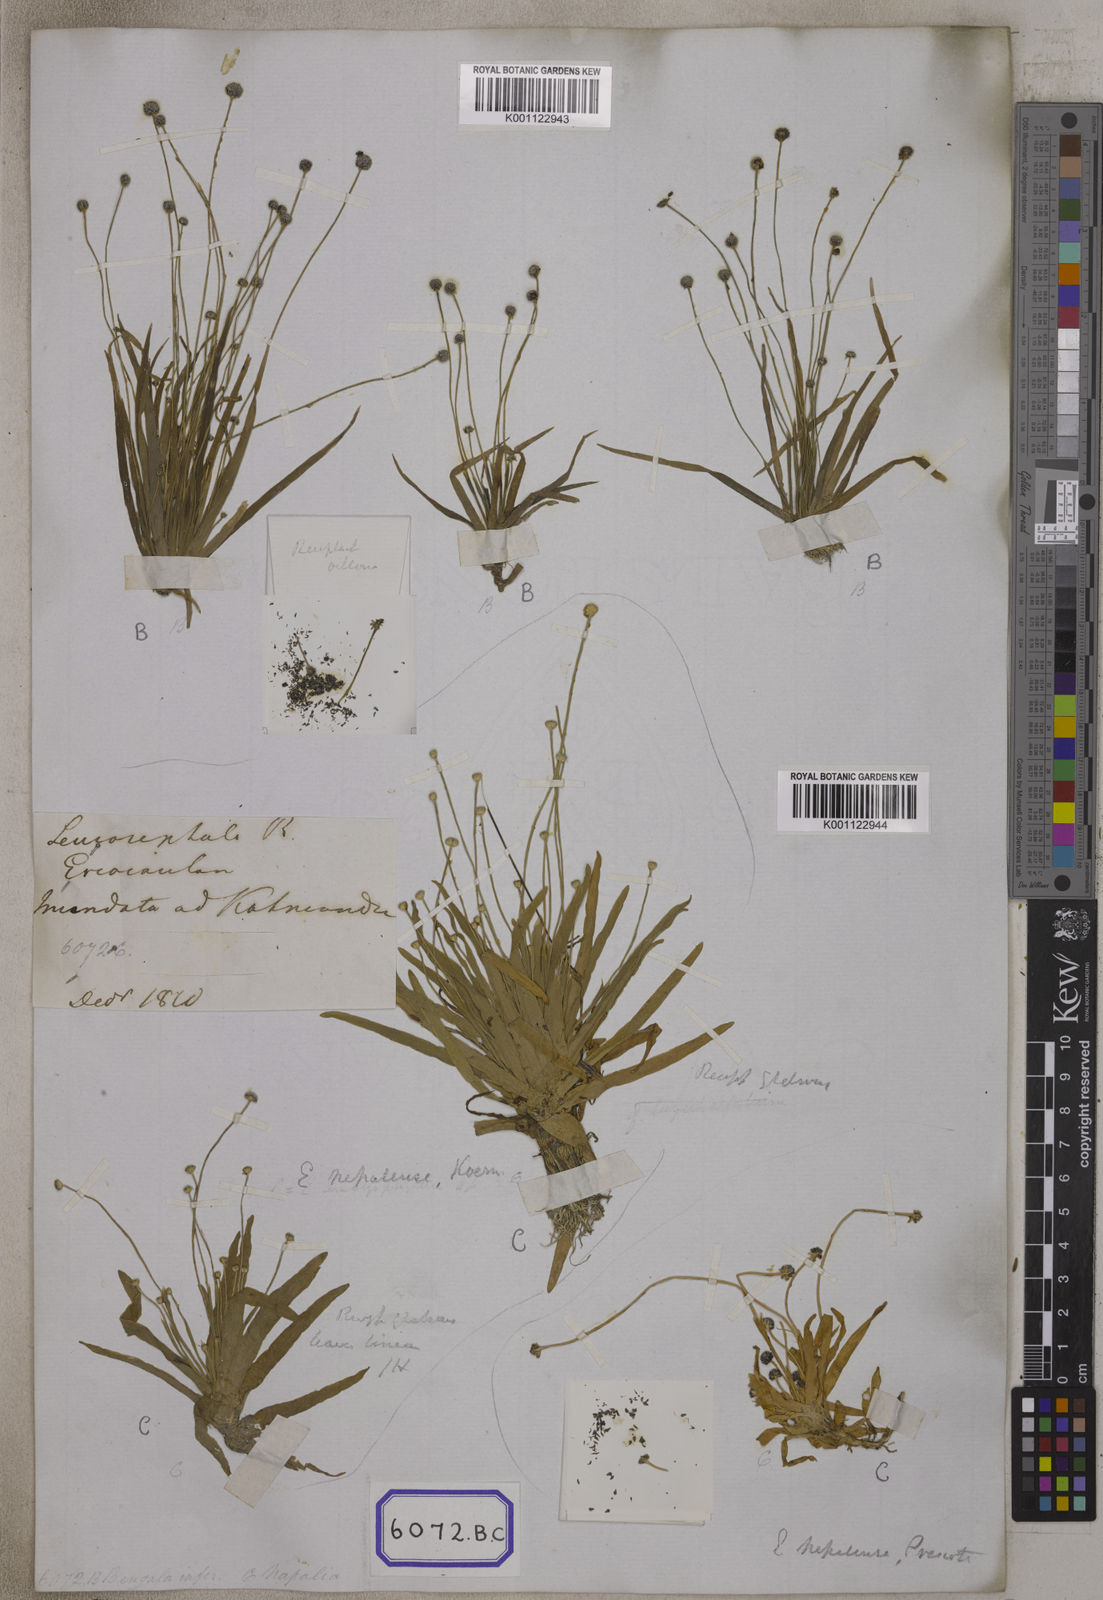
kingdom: Plantae
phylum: Tracheophyta
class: Liliopsida
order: Poales
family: Eriocaulaceae
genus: Eriocaulon
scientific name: Eriocaulon quinquangulare
